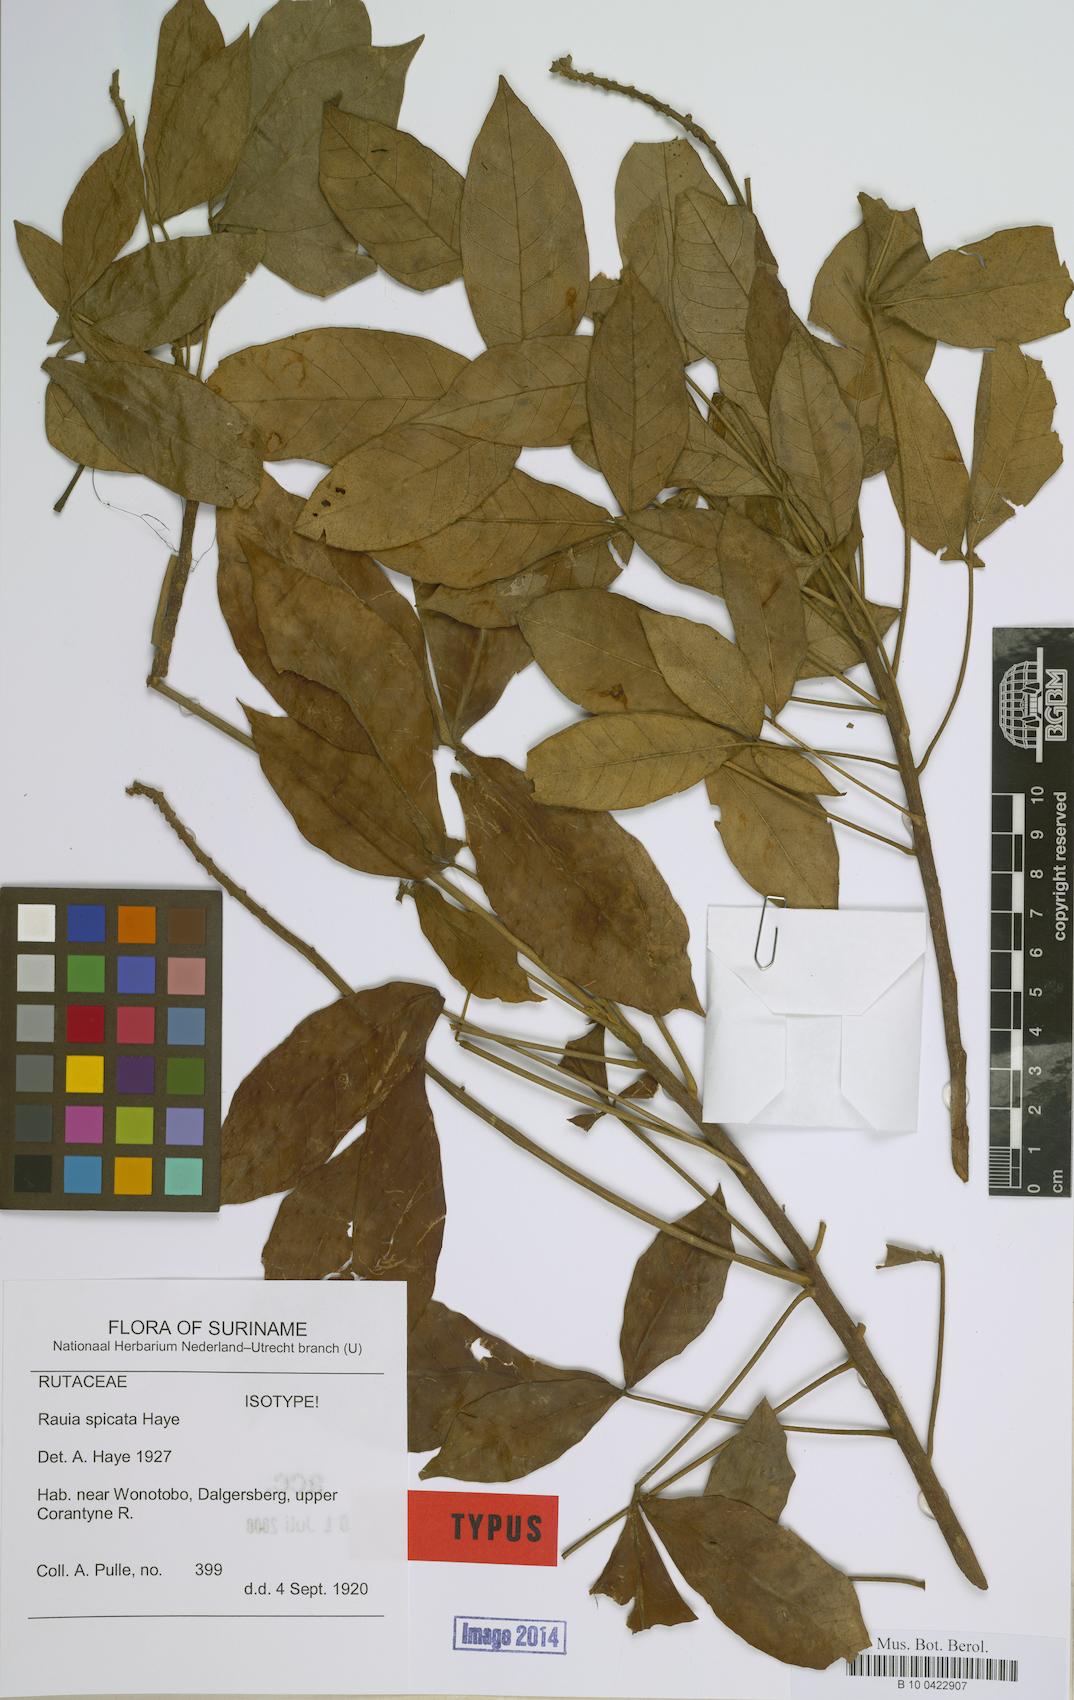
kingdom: Plantae
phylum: Tracheophyta
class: Magnoliopsida
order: Sapindales
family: Rutaceae
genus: Rauia
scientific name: Rauia spicata
